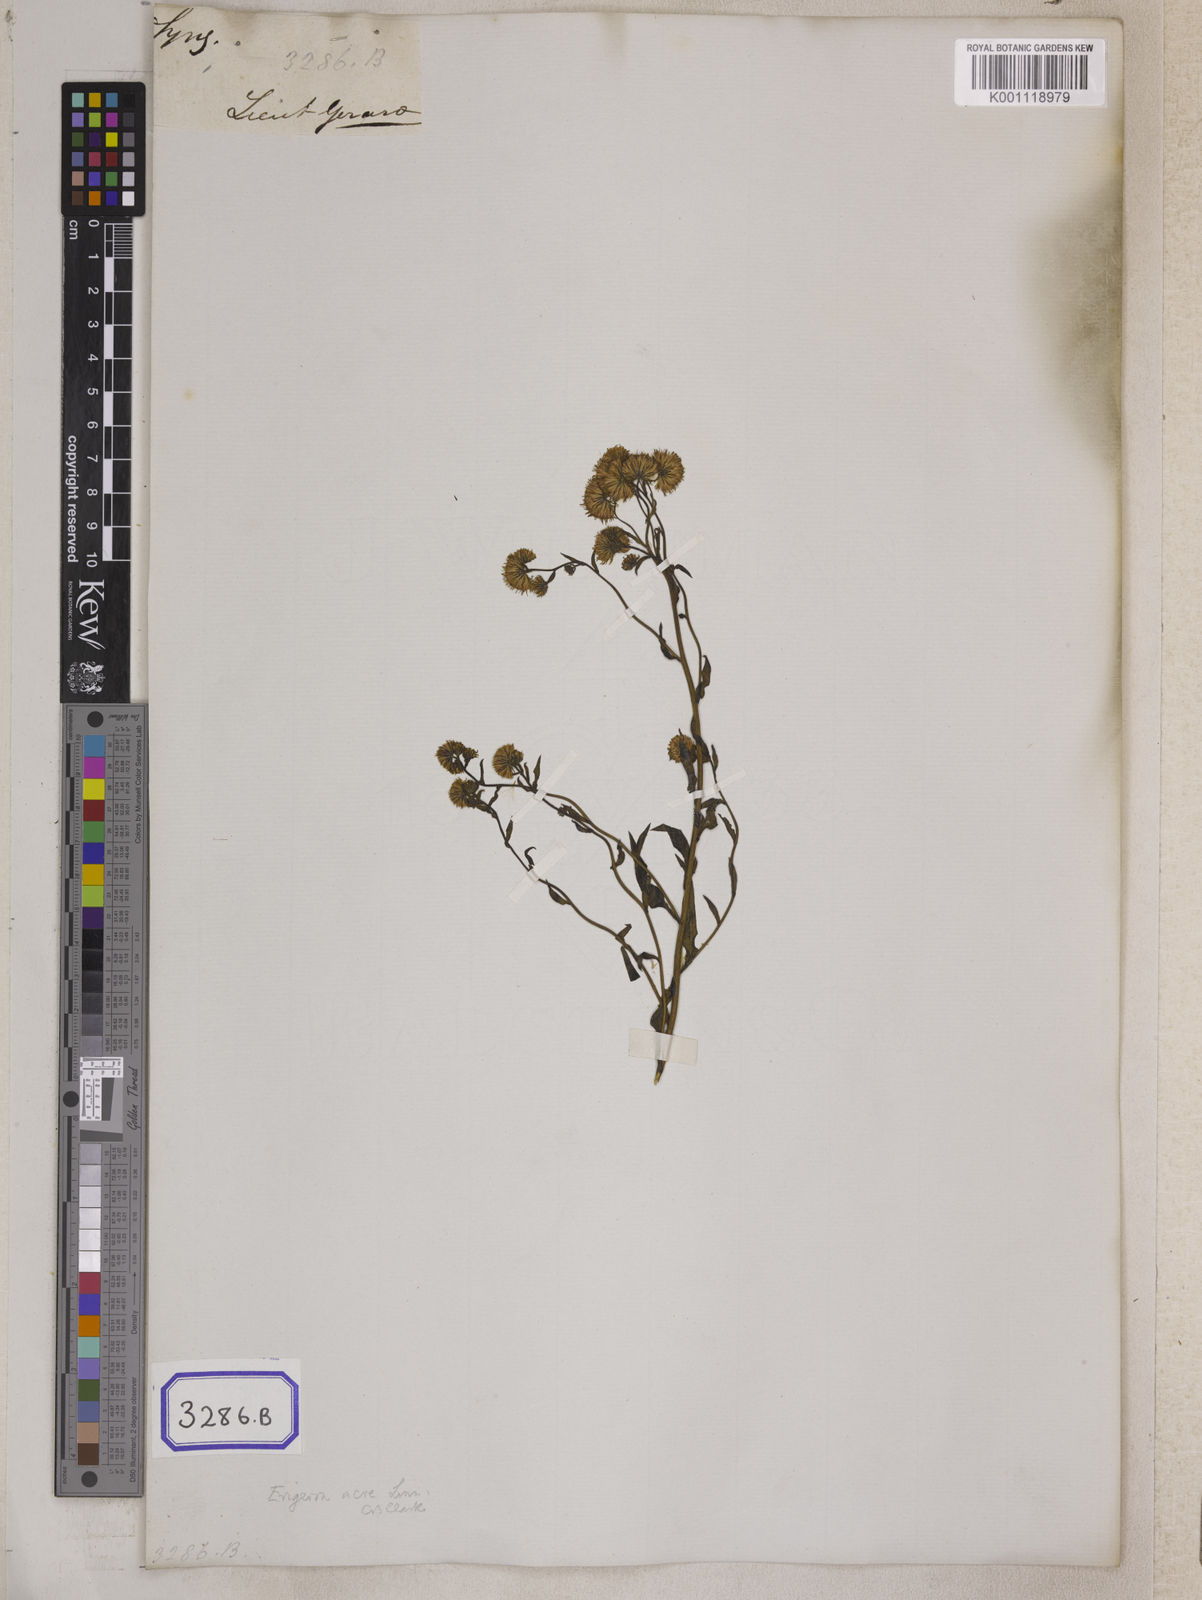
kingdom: Plantae
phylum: Tracheophyta
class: Magnoliopsida
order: Asterales
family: Asteraceae
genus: Erigeron
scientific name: Erigeron acris
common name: Blue fleabane
